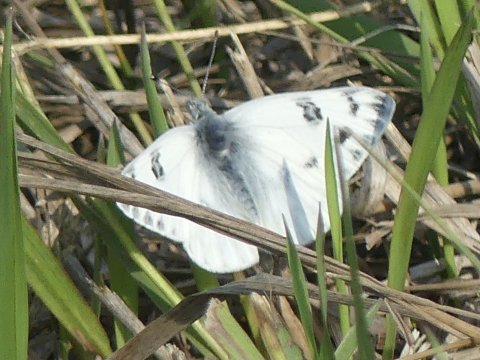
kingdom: Animalia
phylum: Arthropoda
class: Insecta
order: Lepidoptera
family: Pieridae
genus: Pontia
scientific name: Pontia occidentalis
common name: Western White
